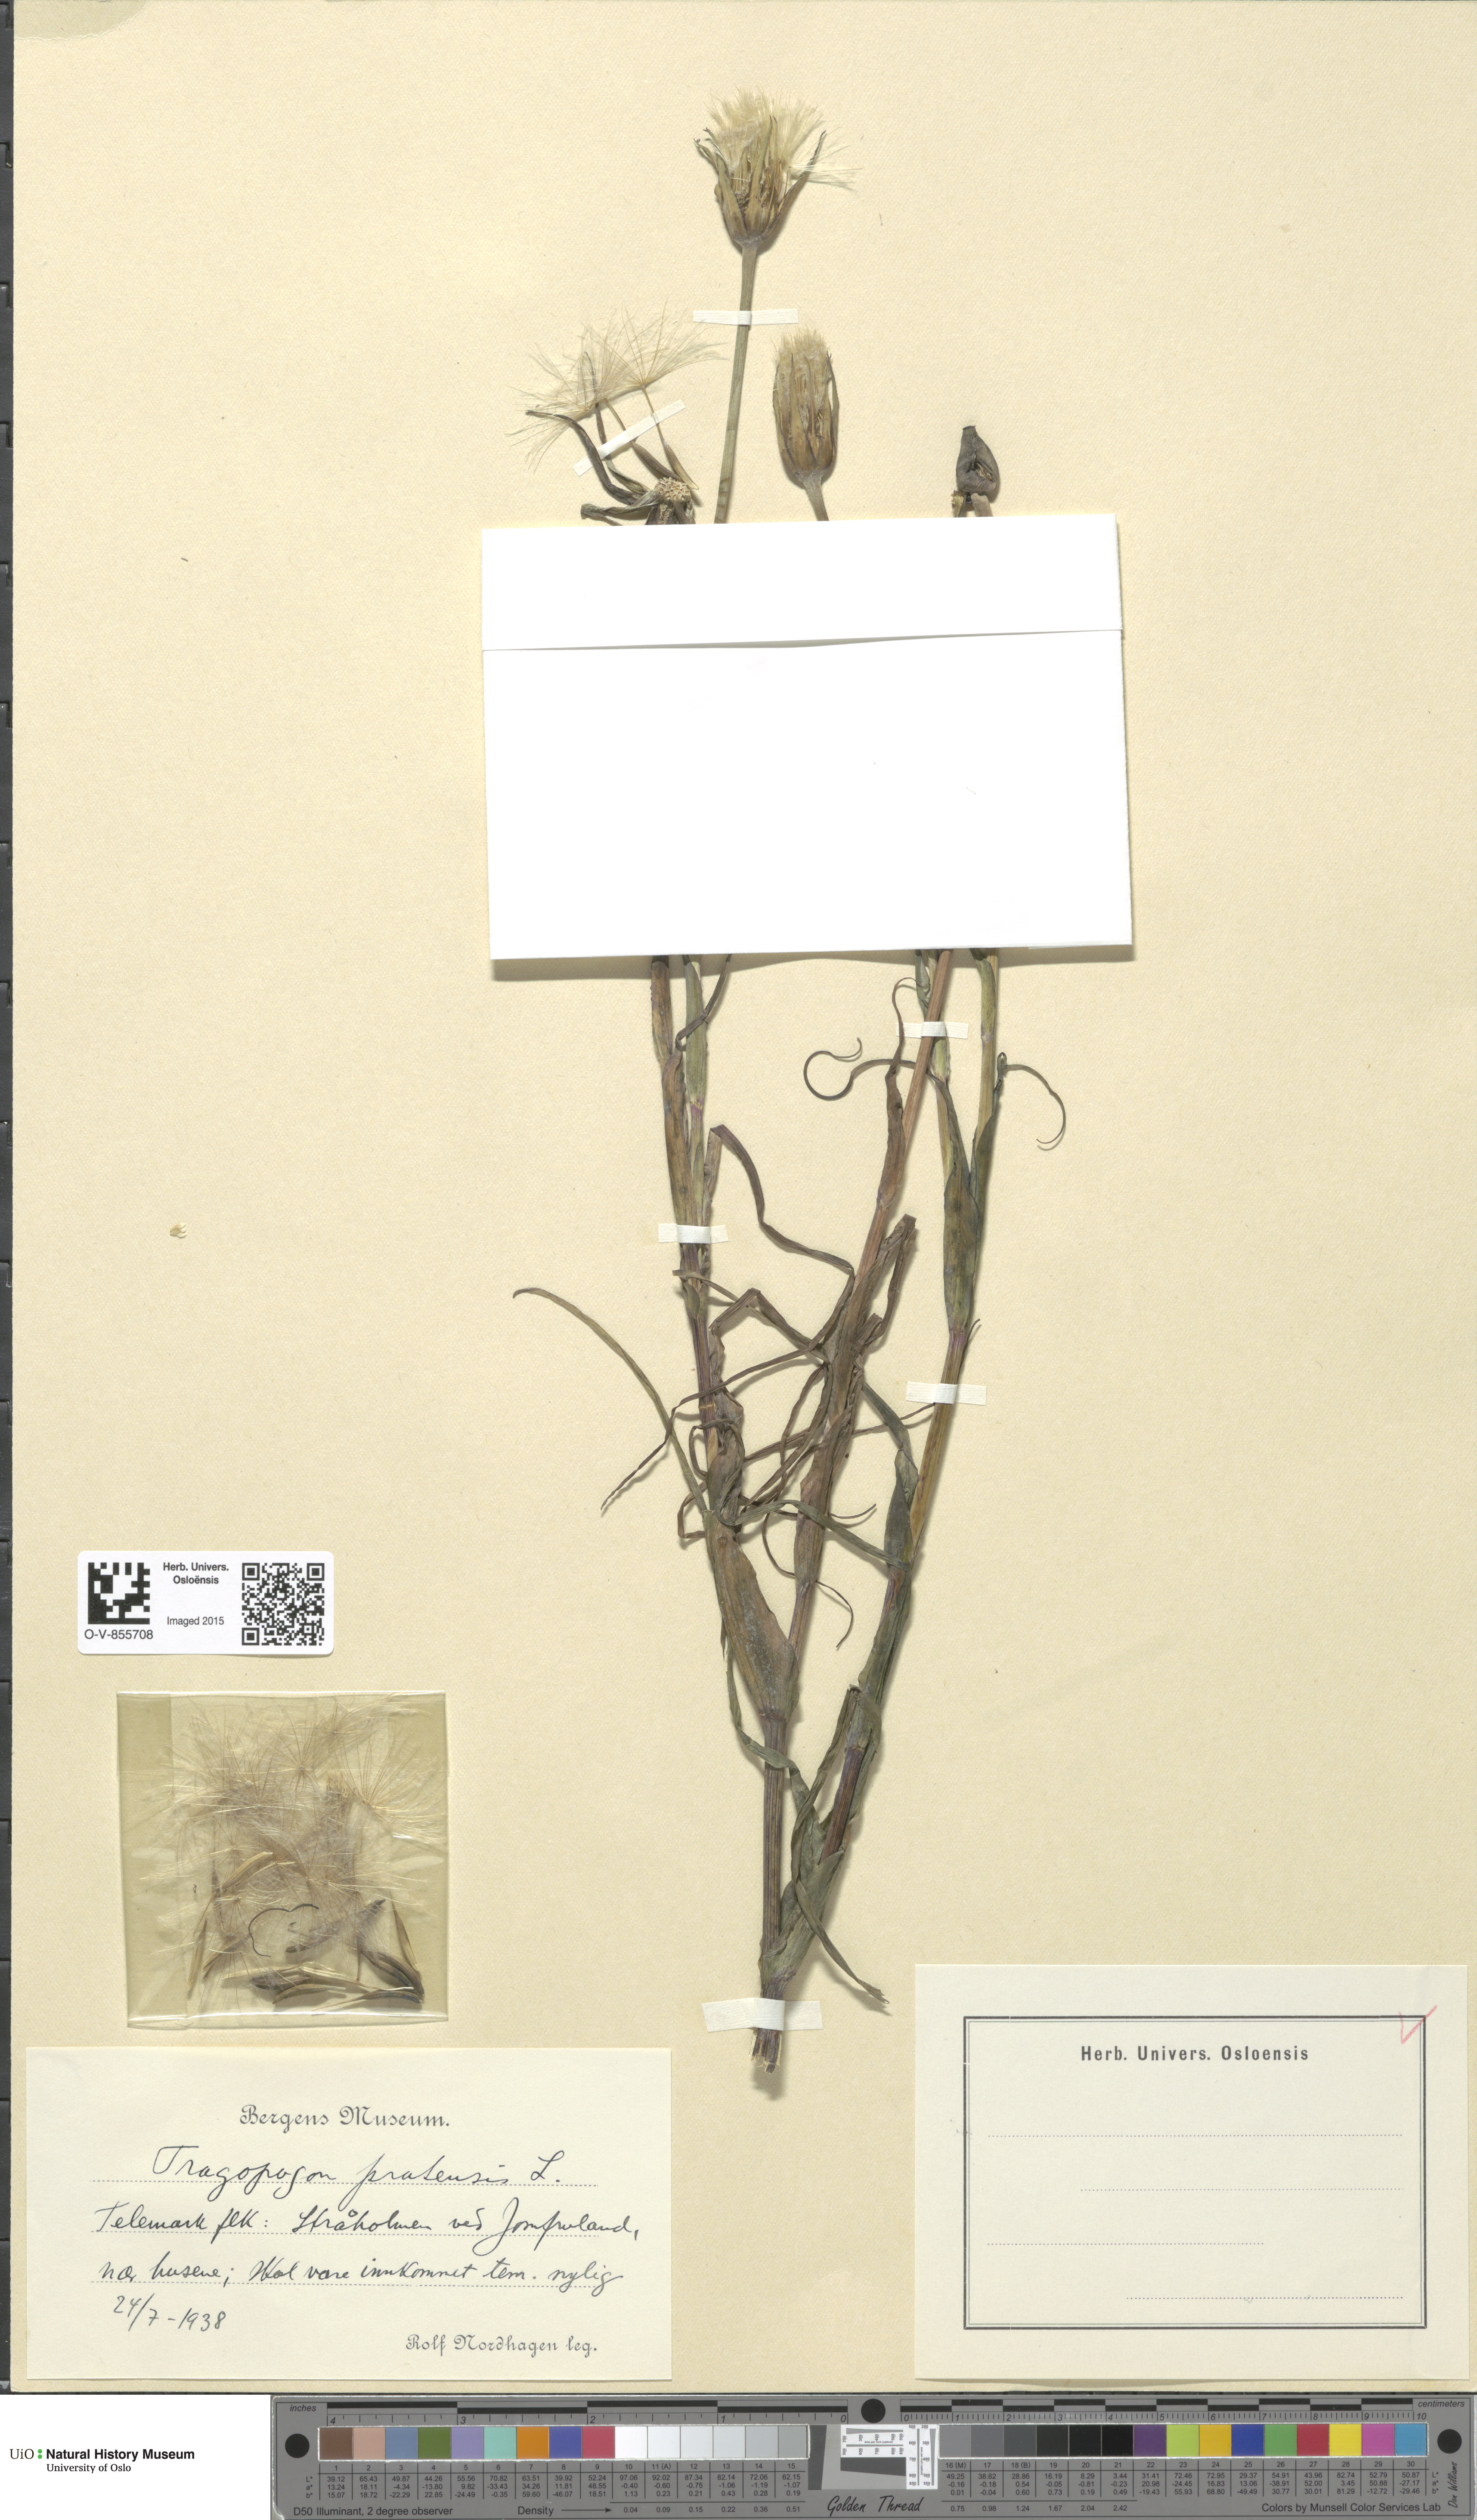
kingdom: Plantae
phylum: Tracheophyta
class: Magnoliopsida
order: Asterales
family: Asteraceae
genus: Tragopogon
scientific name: Tragopogon pratensis
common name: Goat's-beard
